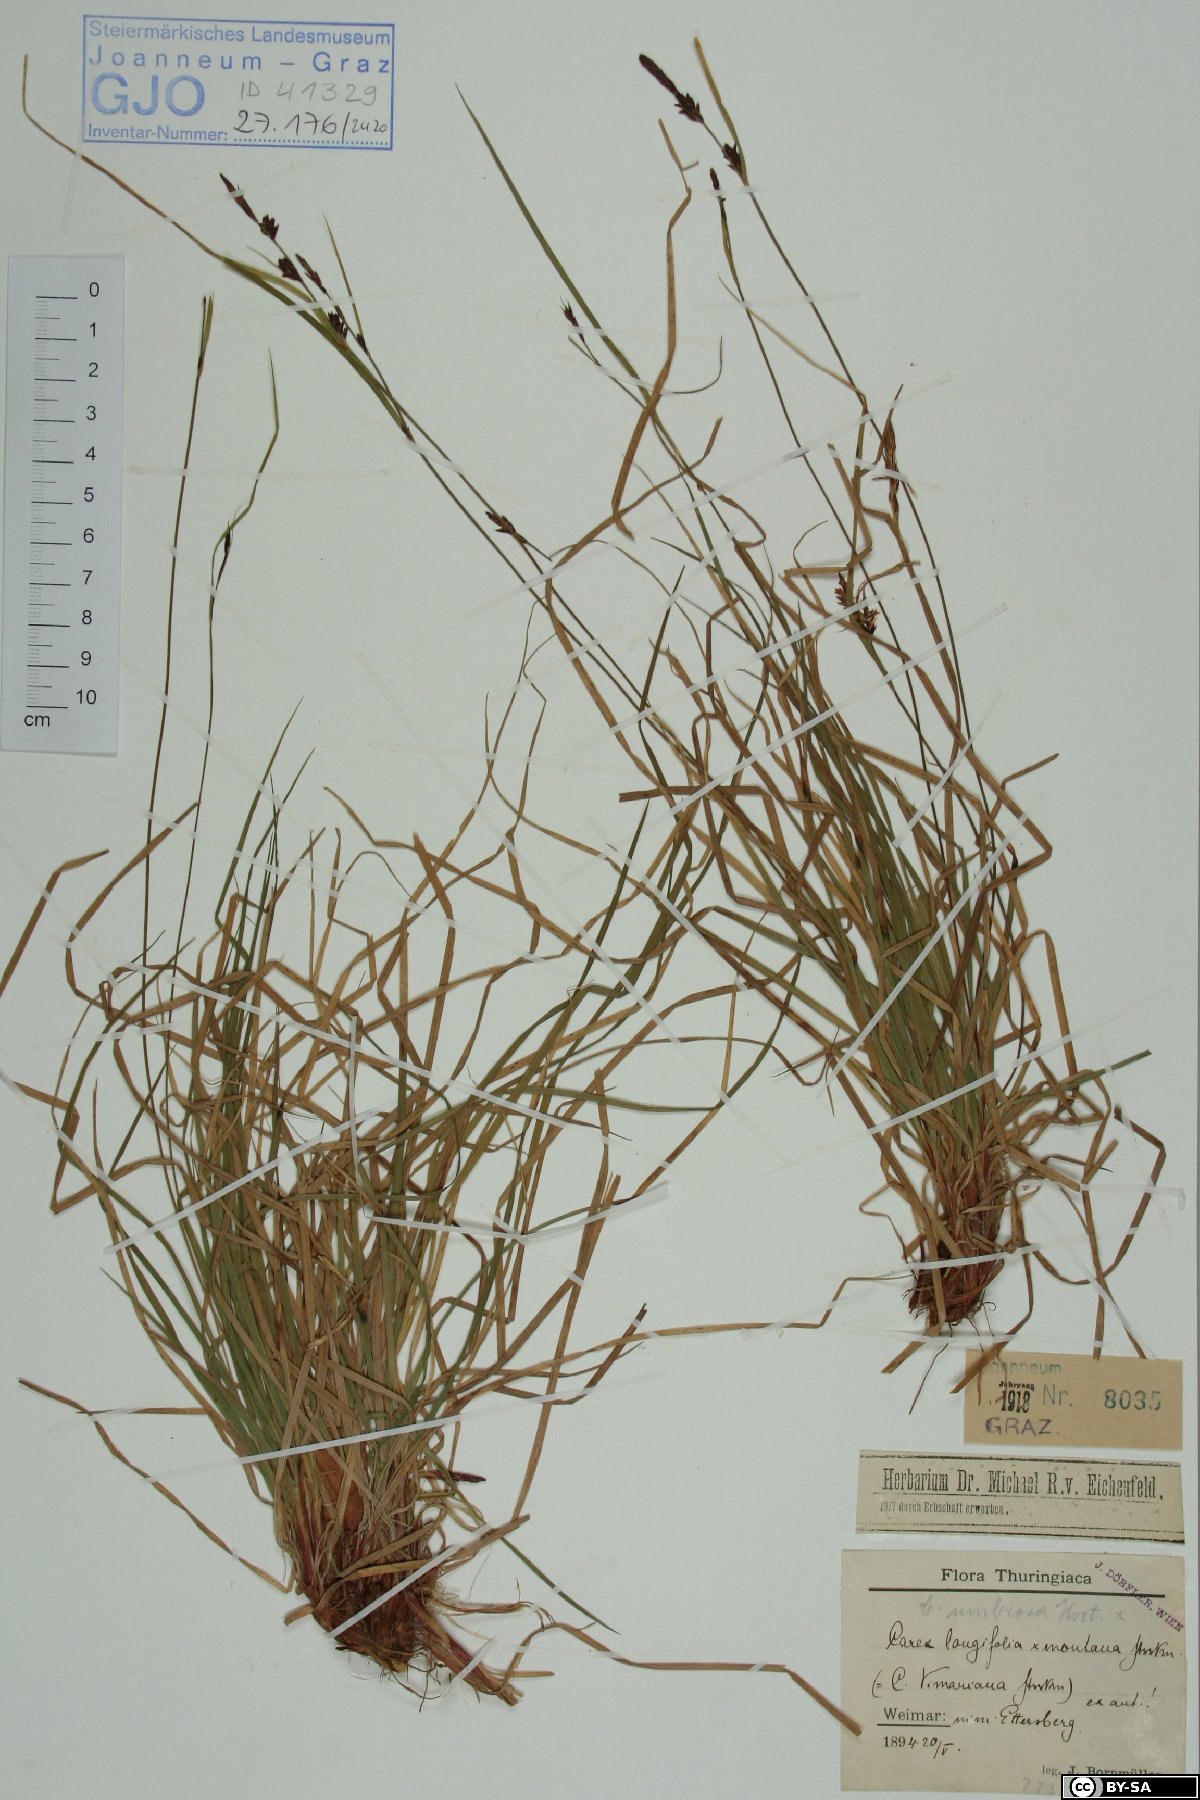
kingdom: Plantae
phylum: Tracheophyta
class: Liliopsida
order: Poales
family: Cyperaceae
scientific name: Cyperaceae
